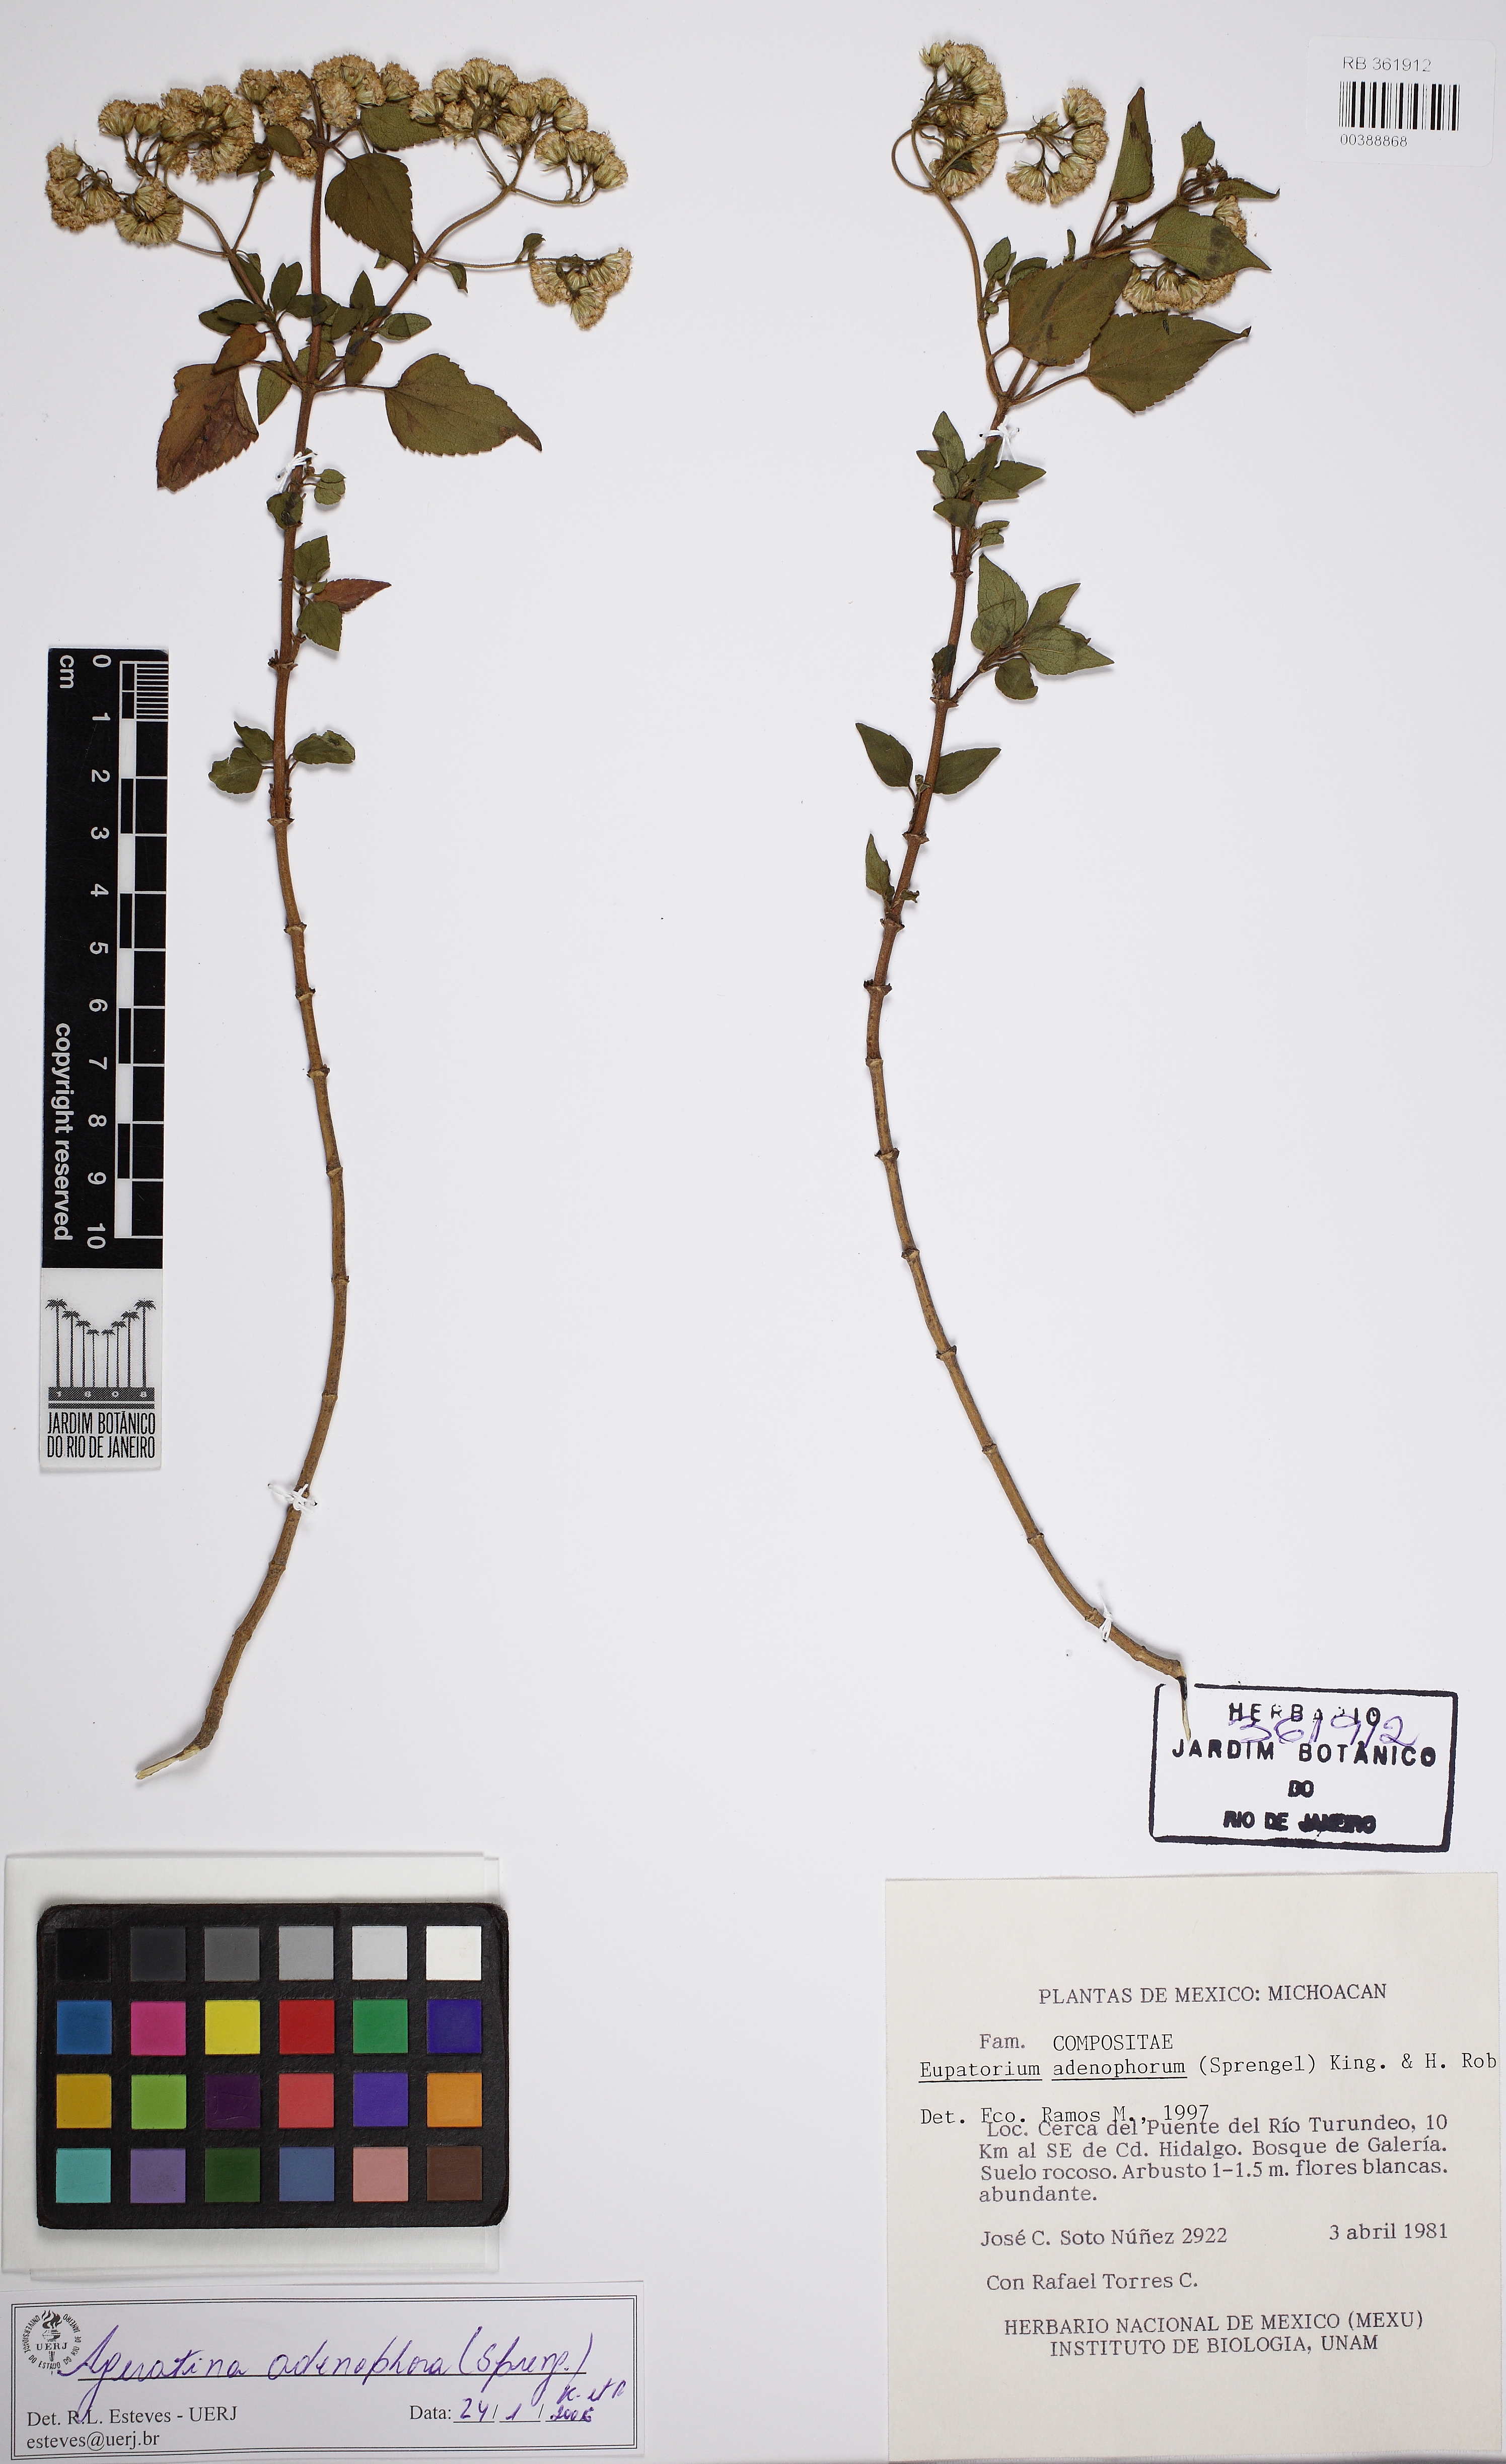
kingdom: Plantae
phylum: Tracheophyta
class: Magnoliopsida
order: Asterales
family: Asteraceae
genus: Ageratina
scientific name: Ageratina adenophora
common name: Sticky snakeroot
